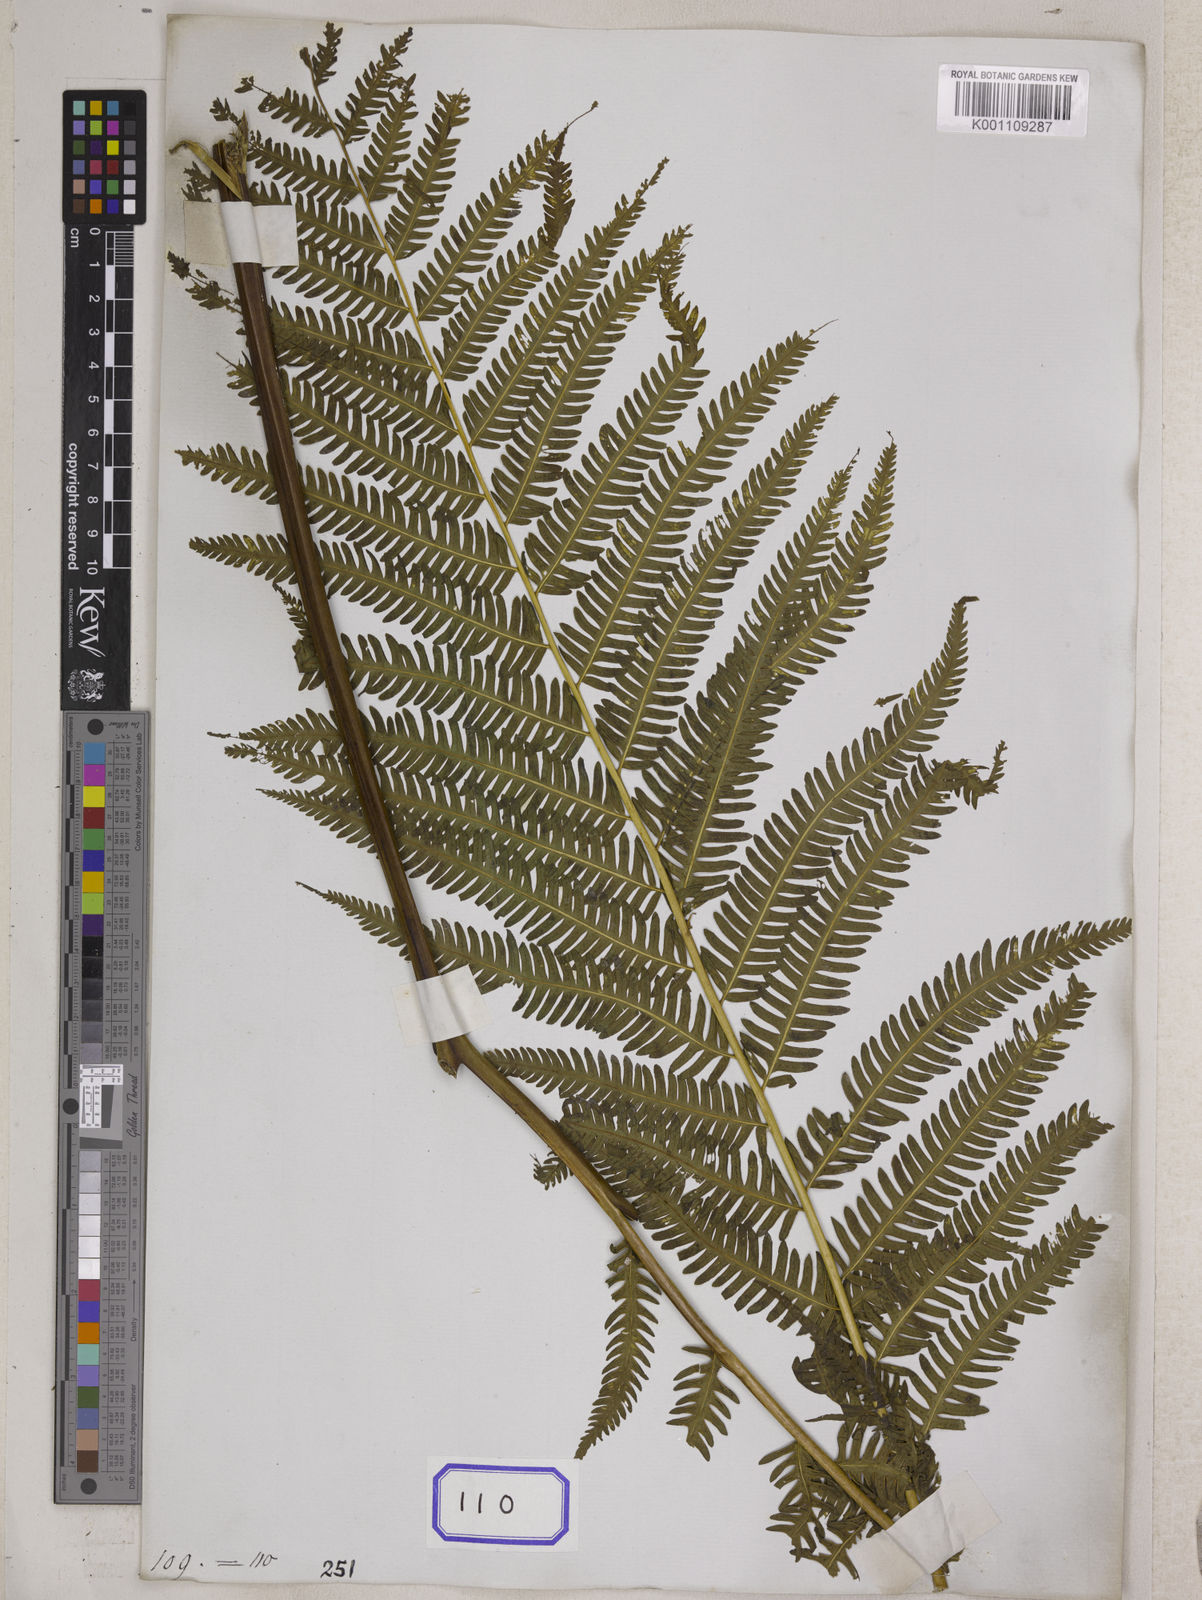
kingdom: Plantae
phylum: Tracheophyta
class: Polypodiopsida
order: Polypodiales
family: Pteridaceae
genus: Pteris
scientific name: Pteris tripartita
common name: Giant brake
